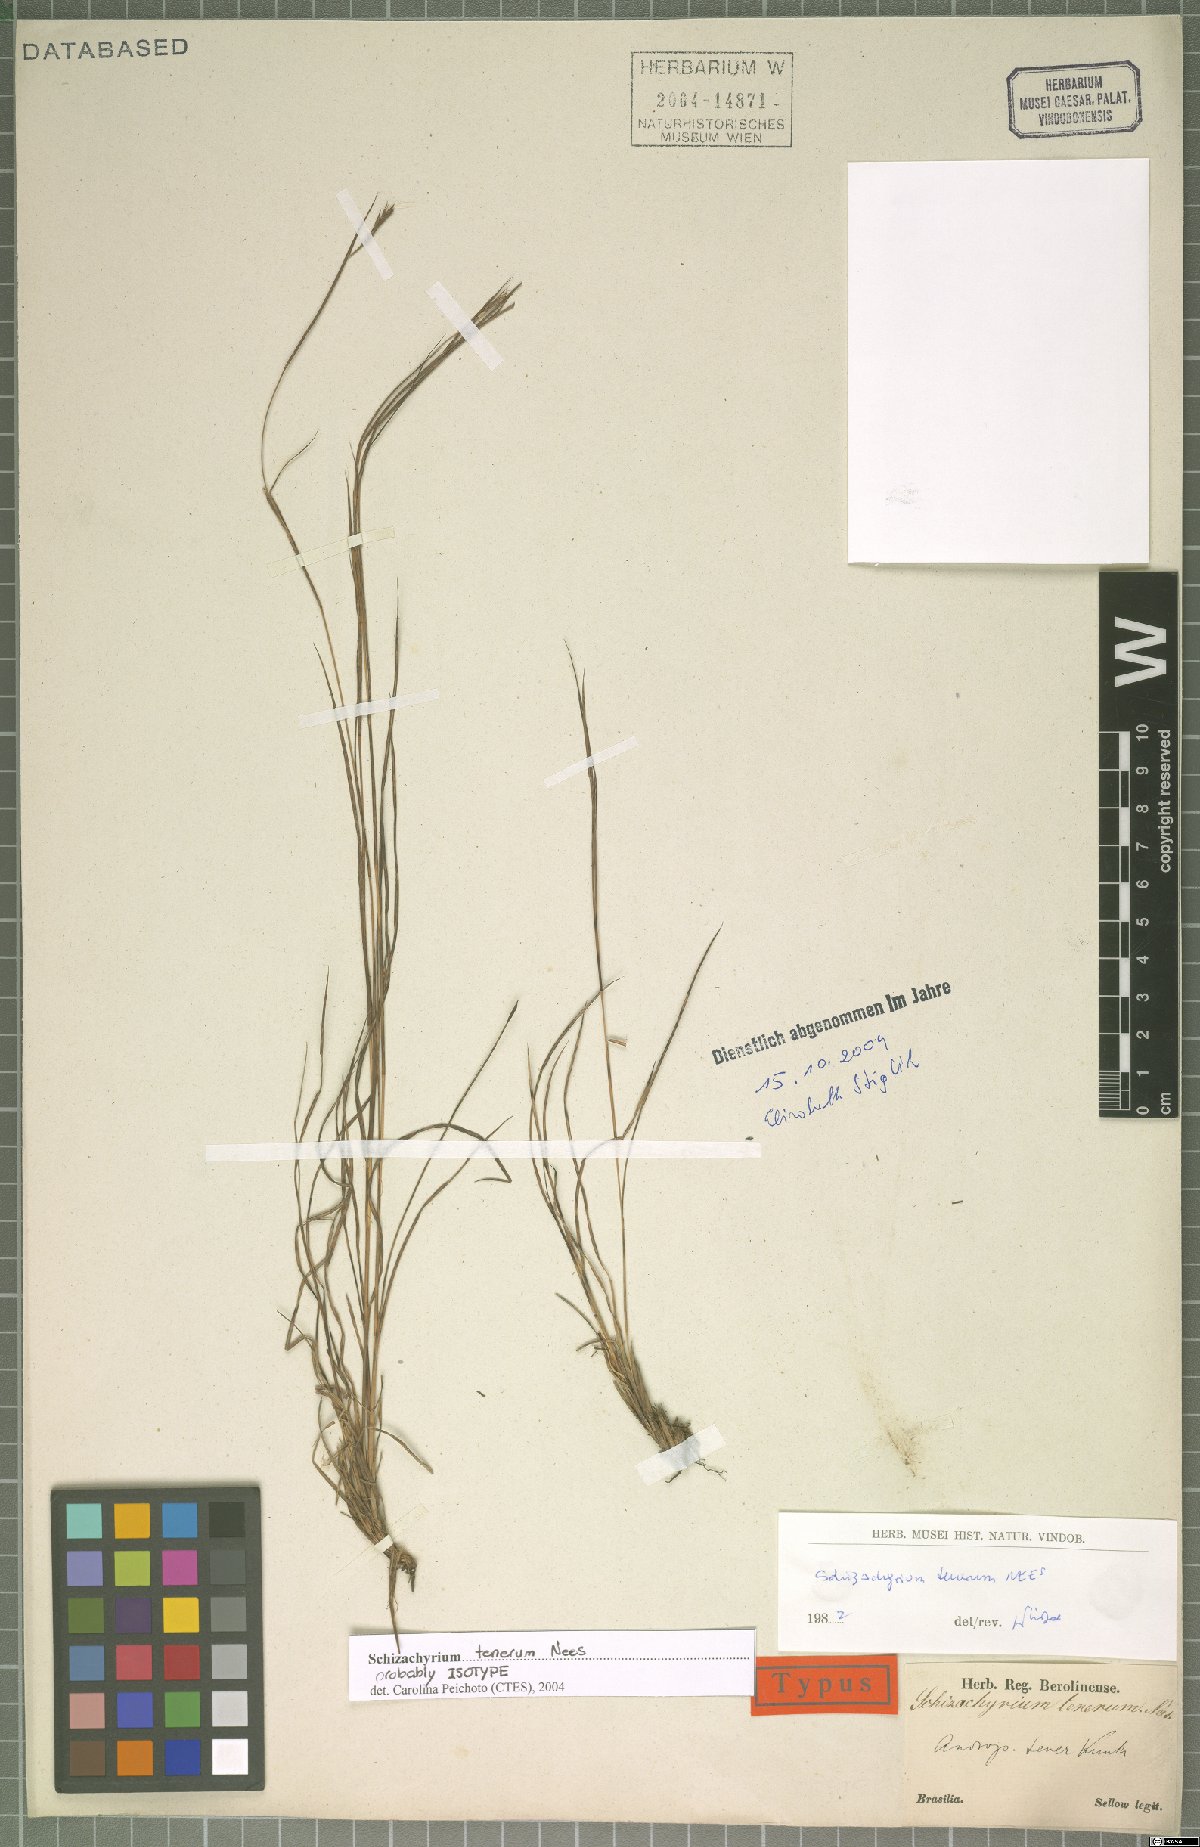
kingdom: Plantae
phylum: Tracheophyta
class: Liliopsida
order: Poales
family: Poaceae
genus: Andropogon
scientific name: Andropogon tener
